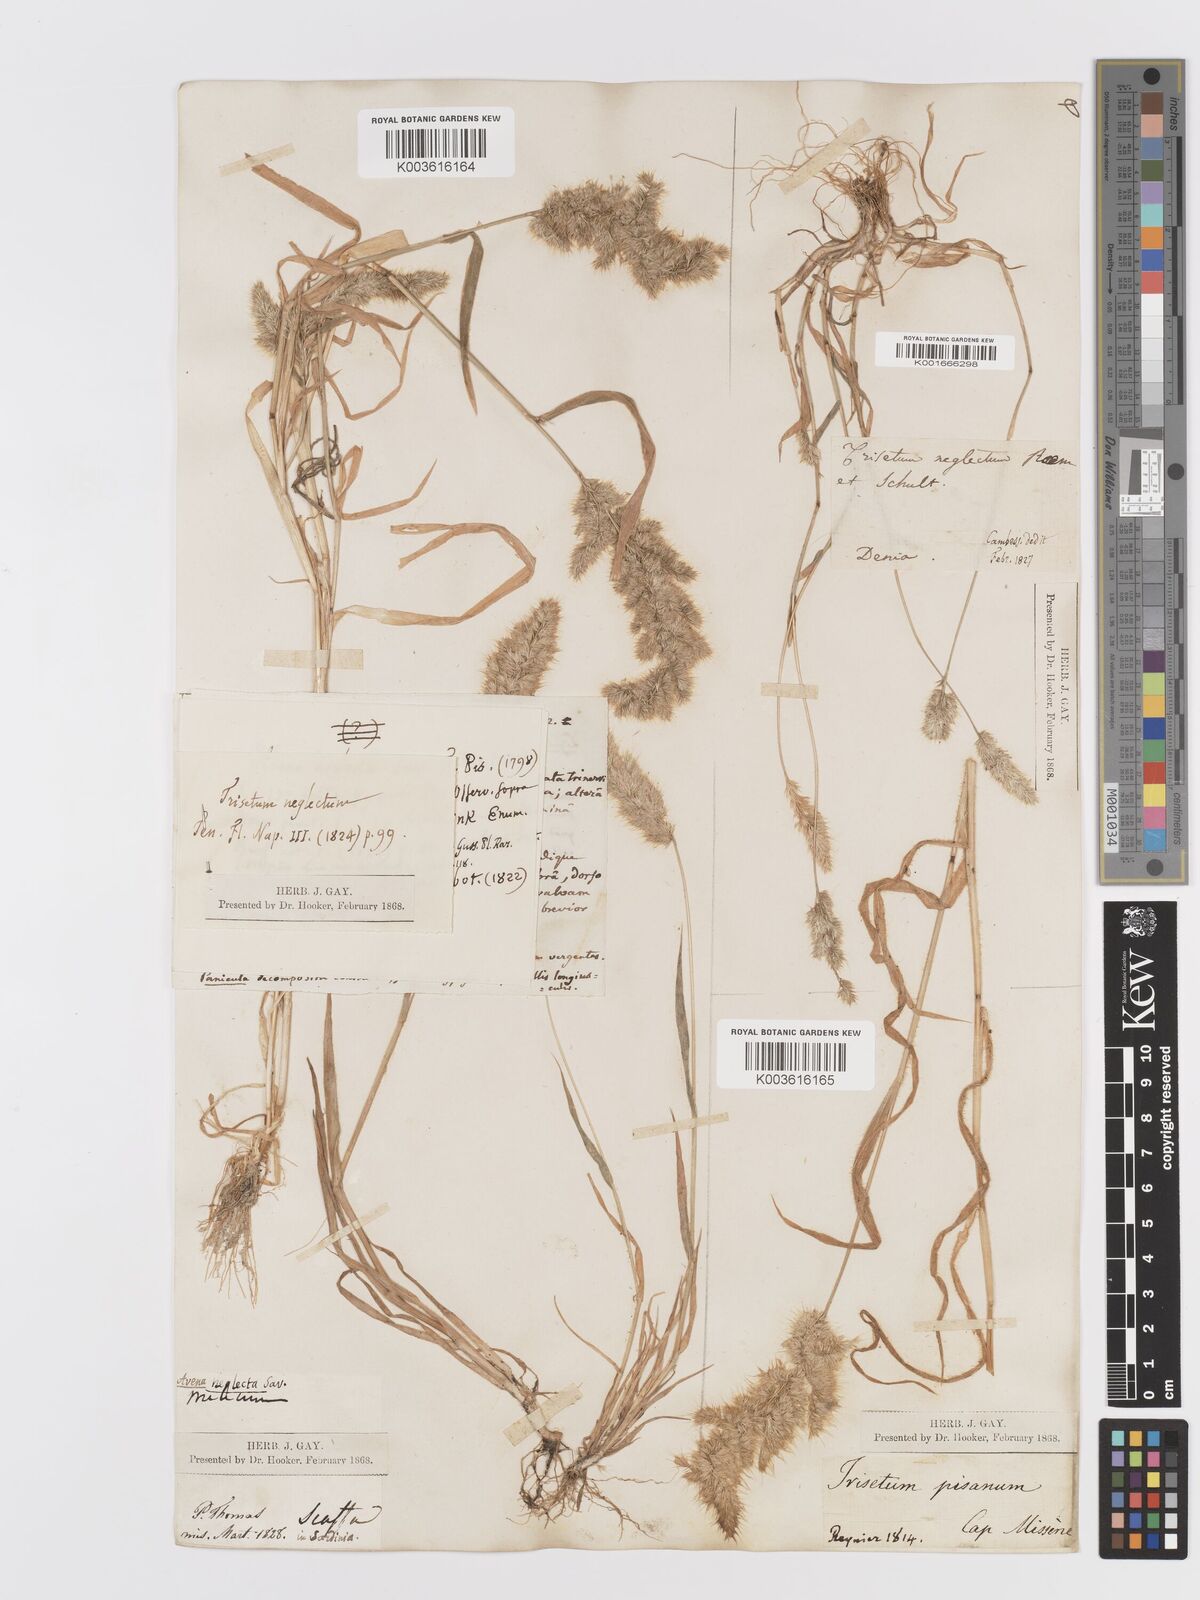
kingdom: Plantae
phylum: Tracheophyta
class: Liliopsida
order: Poales
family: Poaceae
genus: Trisetaria
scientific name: Trisetaria panicea
